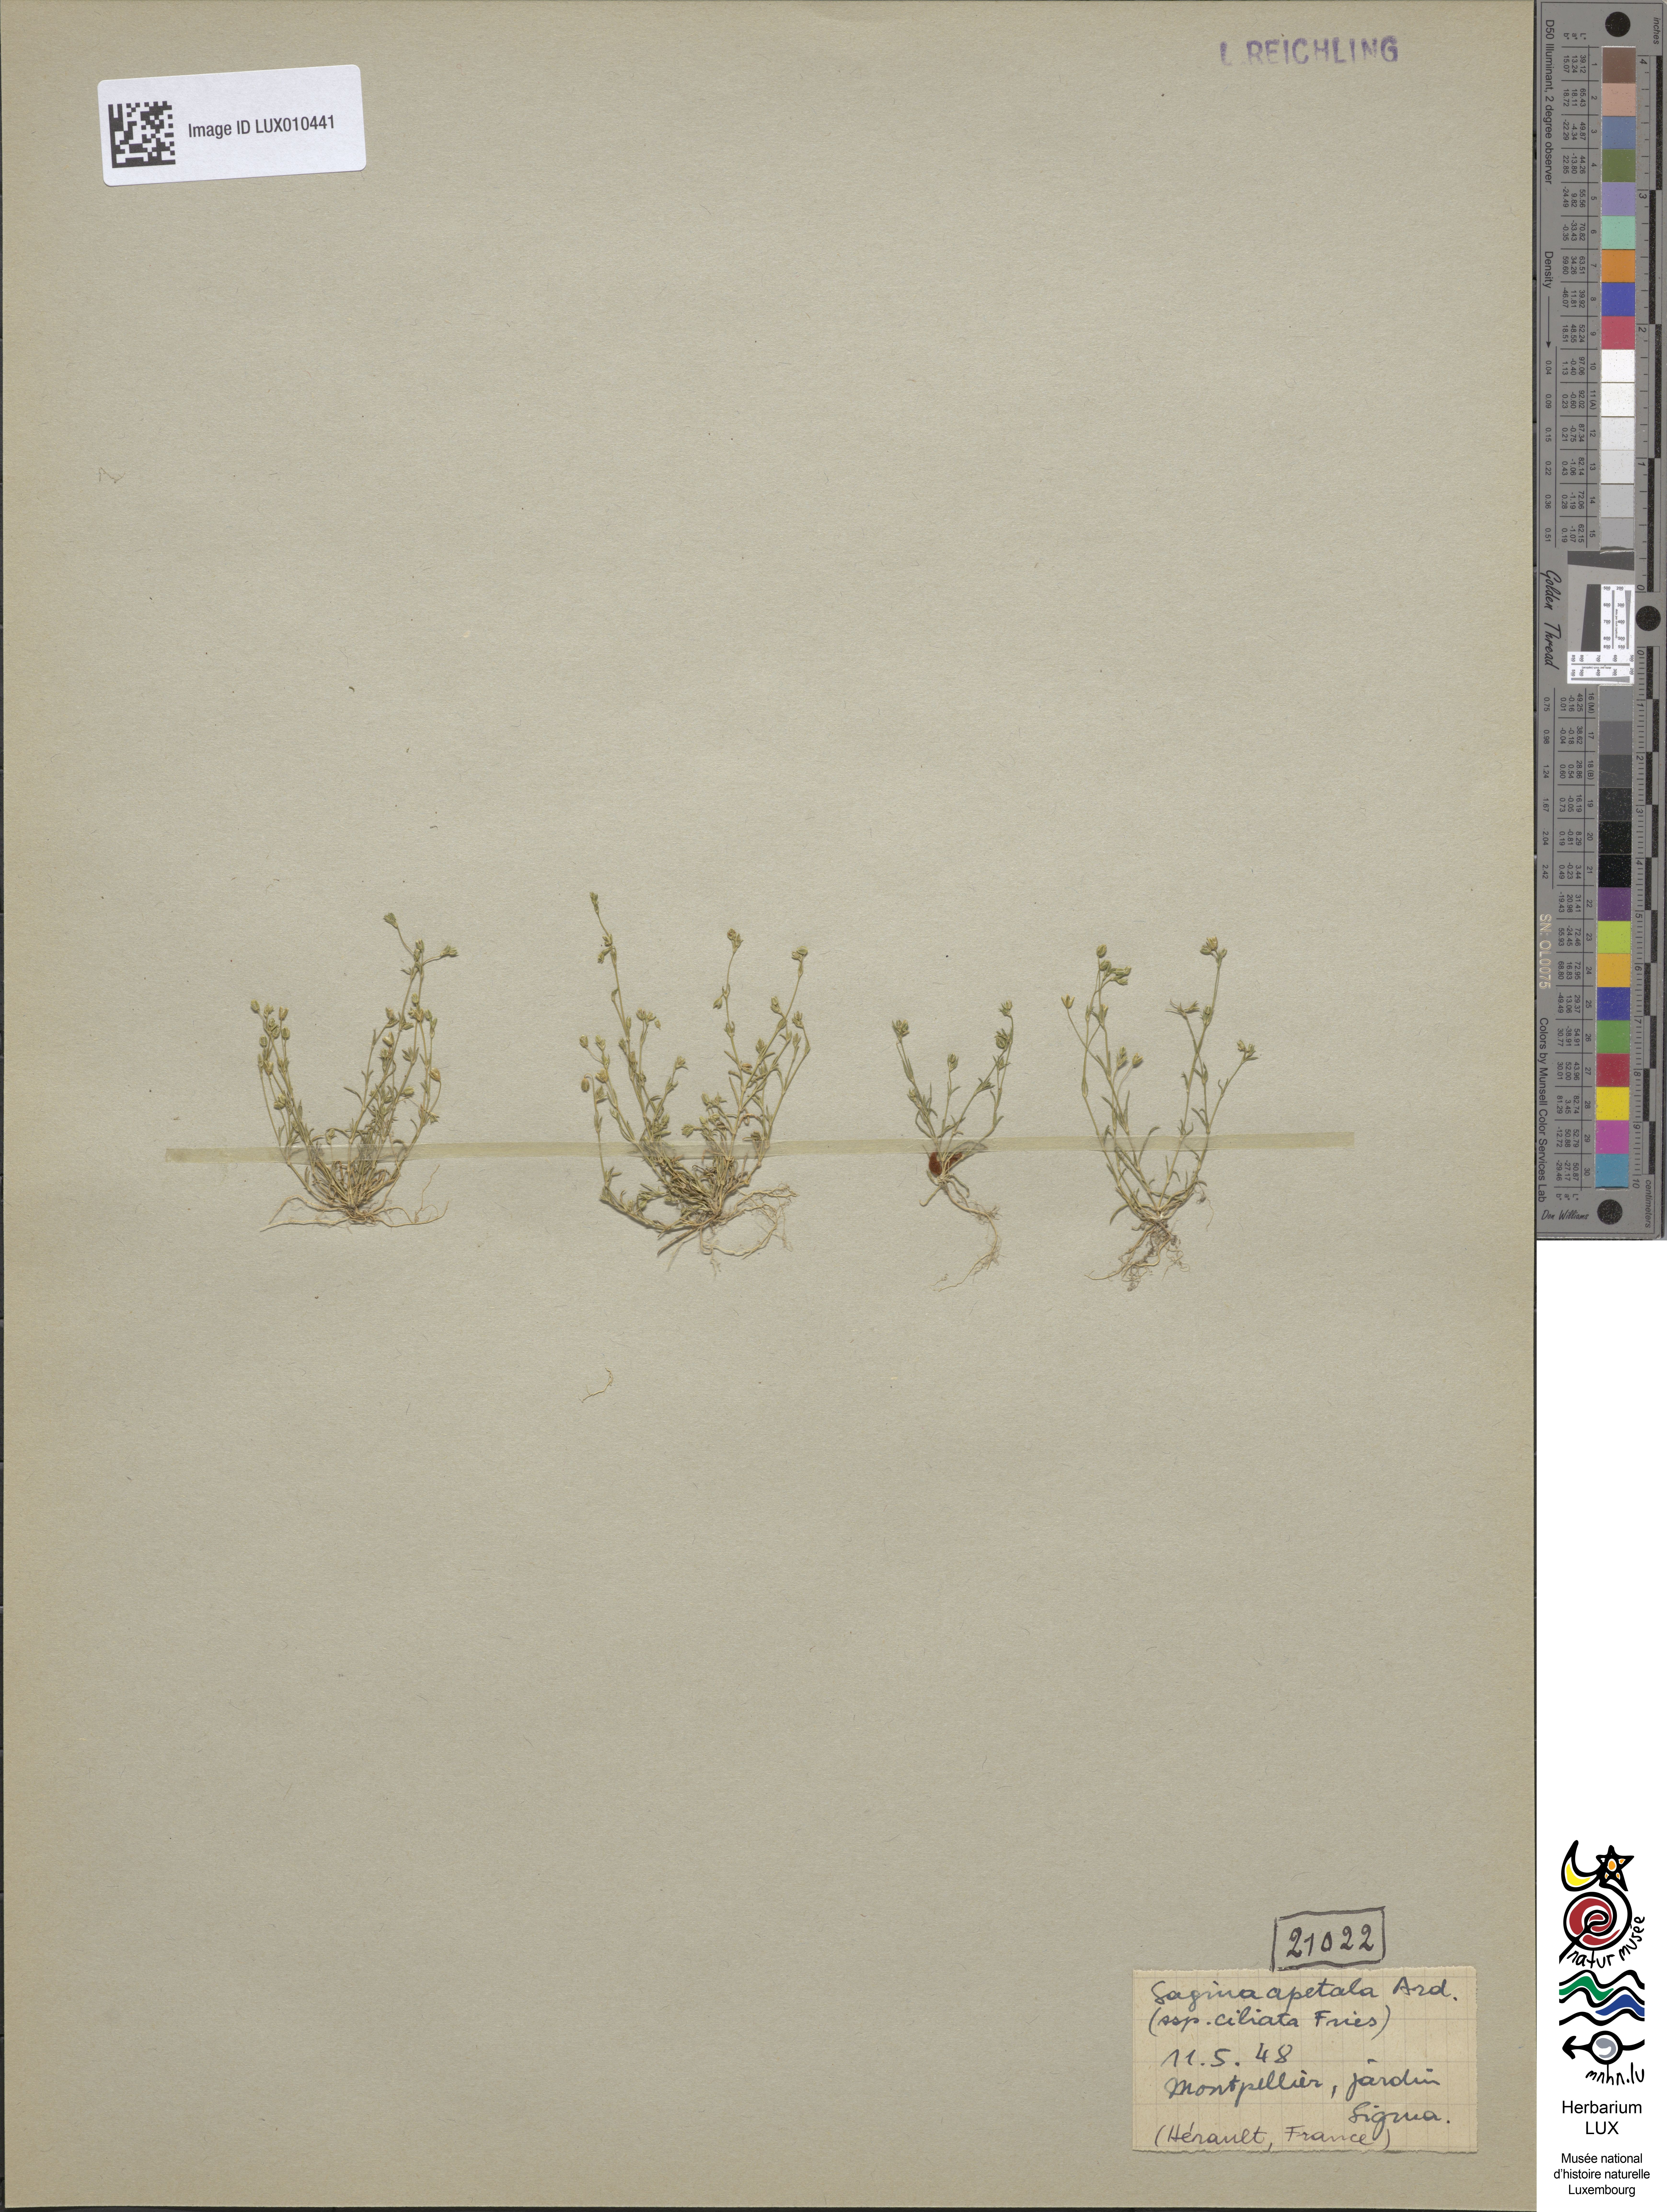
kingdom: Plantae
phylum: Tracheophyta
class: Magnoliopsida
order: Caryophyllales
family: Caryophyllaceae
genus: Sagina
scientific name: Sagina apetala
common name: Annual pearlwort
